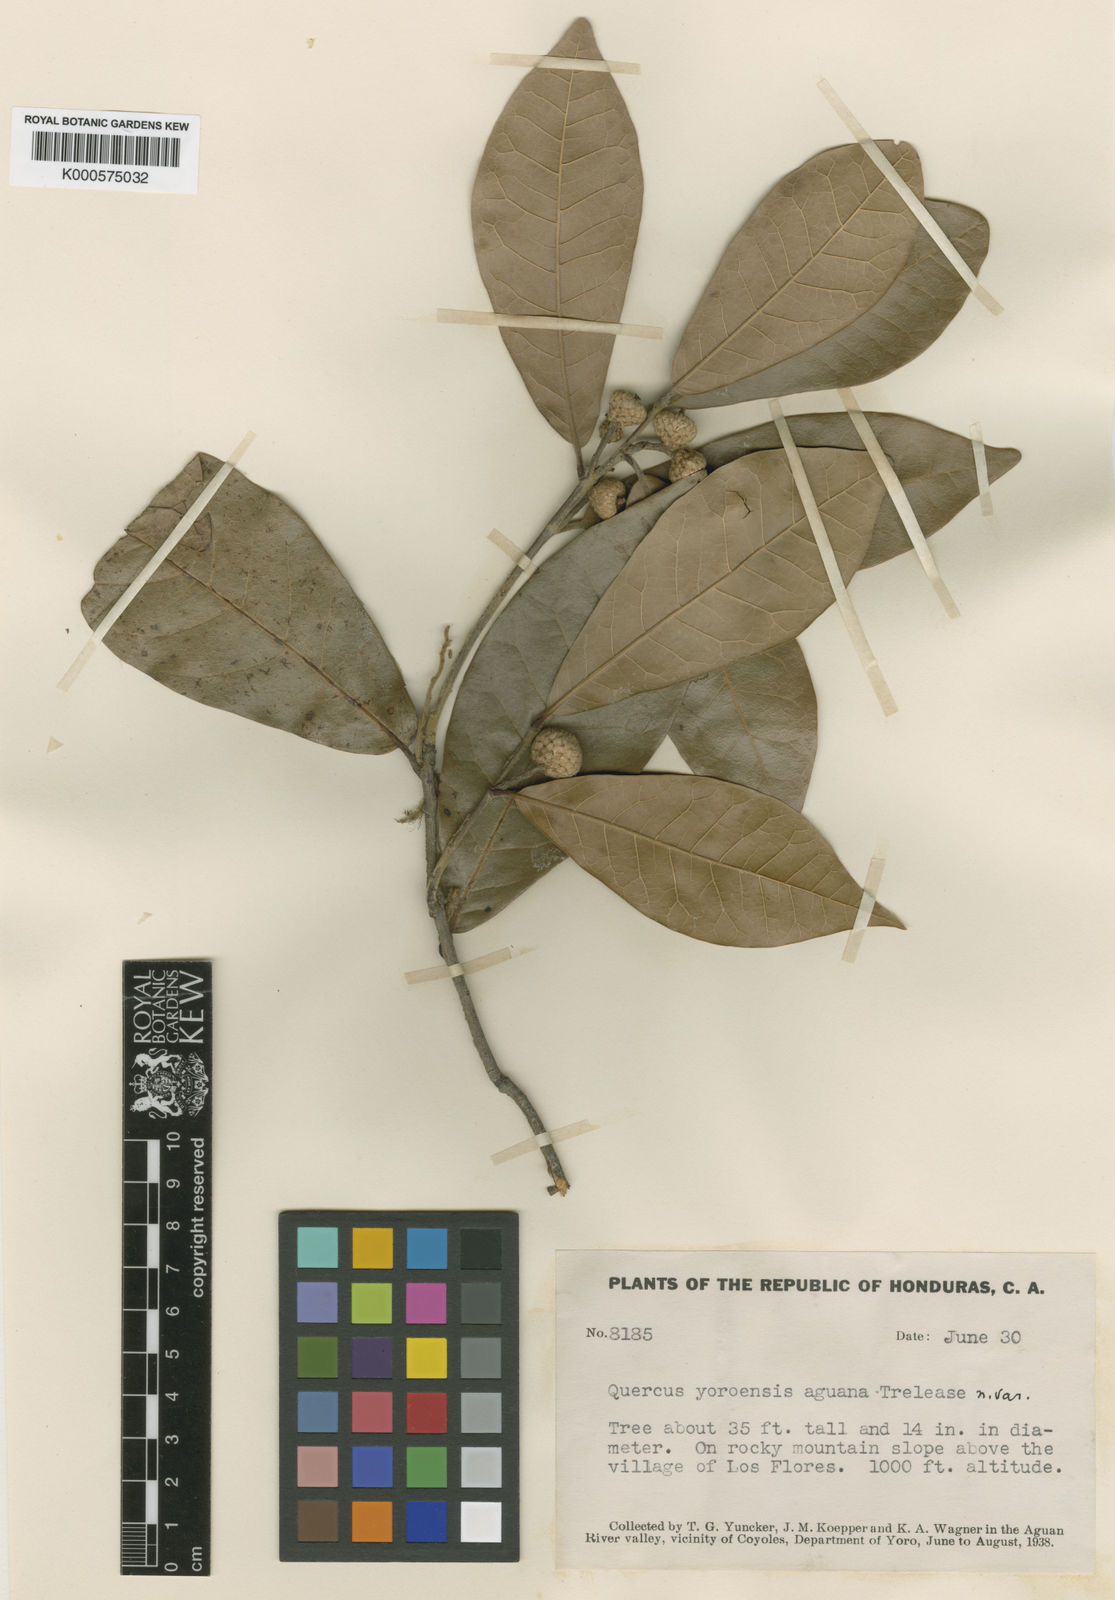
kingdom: Plantae
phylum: Tracheophyta
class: Magnoliopsida
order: Fagales
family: Fagaceae
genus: Quercus
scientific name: Quercus elliptica
